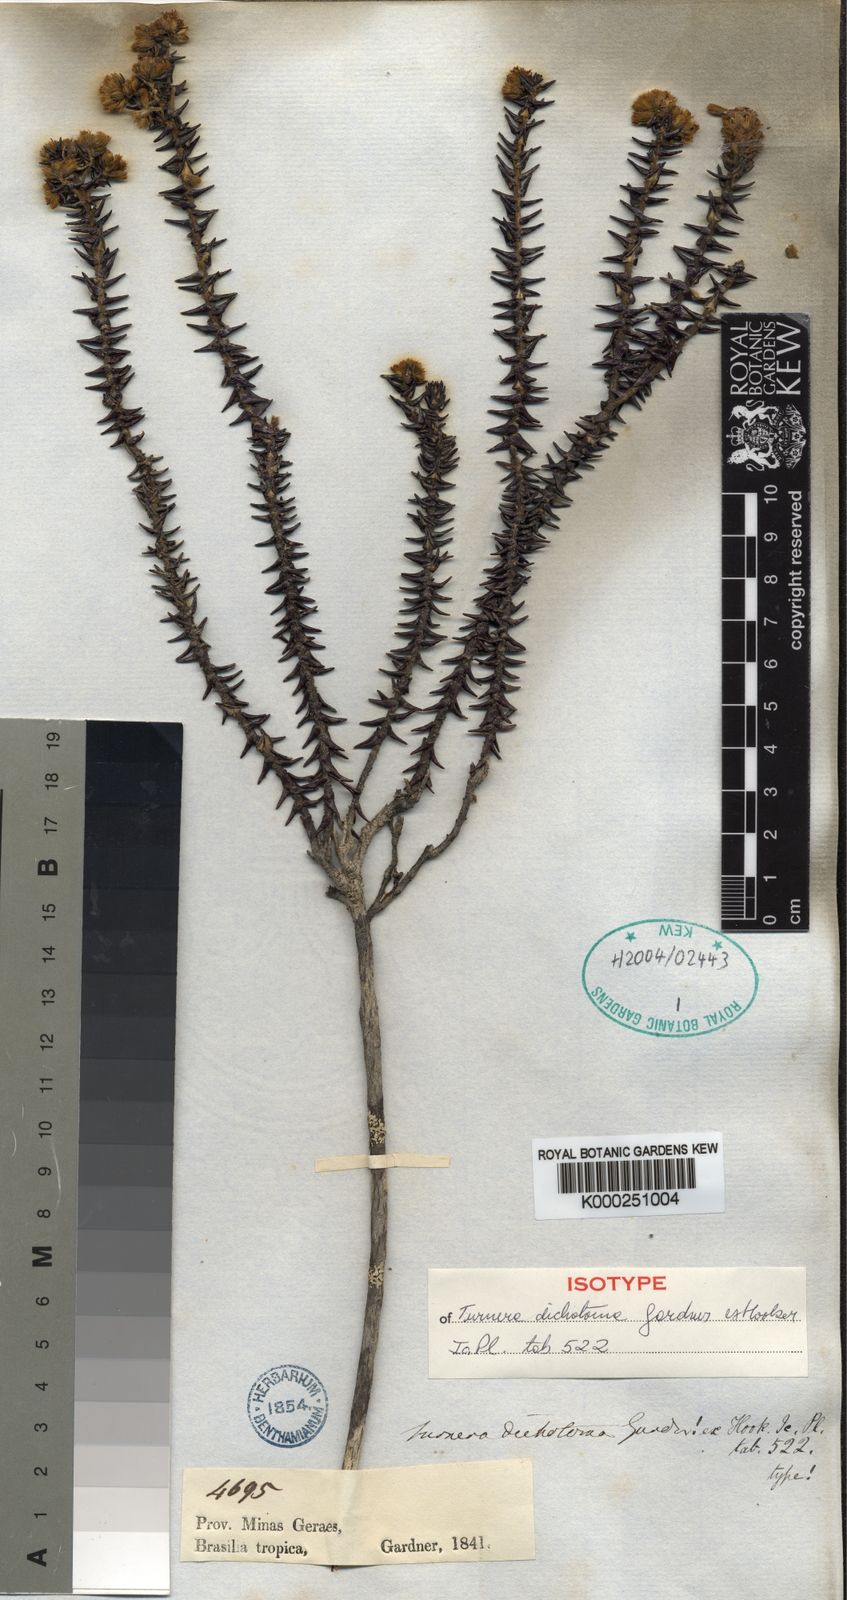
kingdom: Plantae
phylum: Tracheophyta
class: Magnoliopsida
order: Malpighiales
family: Turneraceae
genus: Turnera
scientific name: Turnera dichotoma
